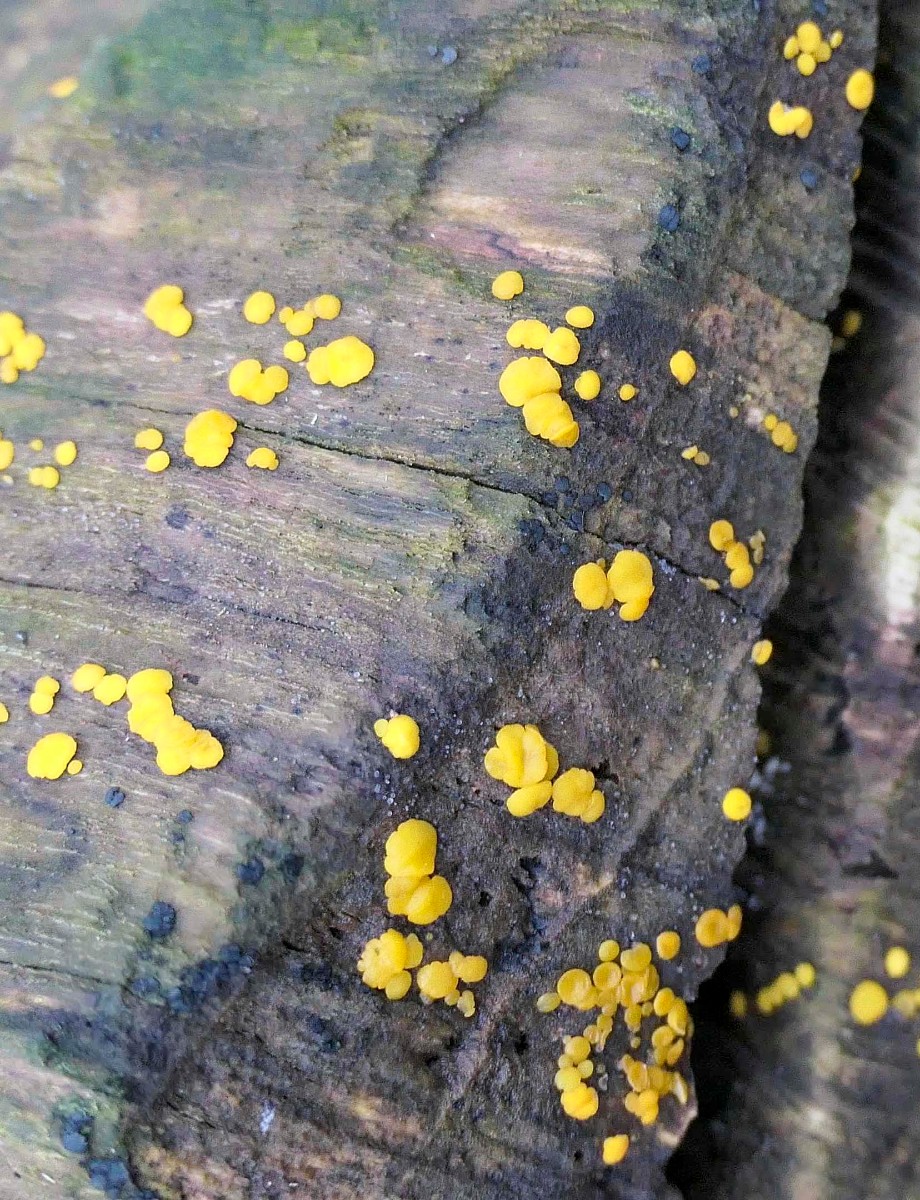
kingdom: Fungi
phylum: Ascomycota
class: Leotiomycetes
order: Helotiales
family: Pezizellaceae
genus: Calycina
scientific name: Calycina citrina
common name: almindelig gulskive
